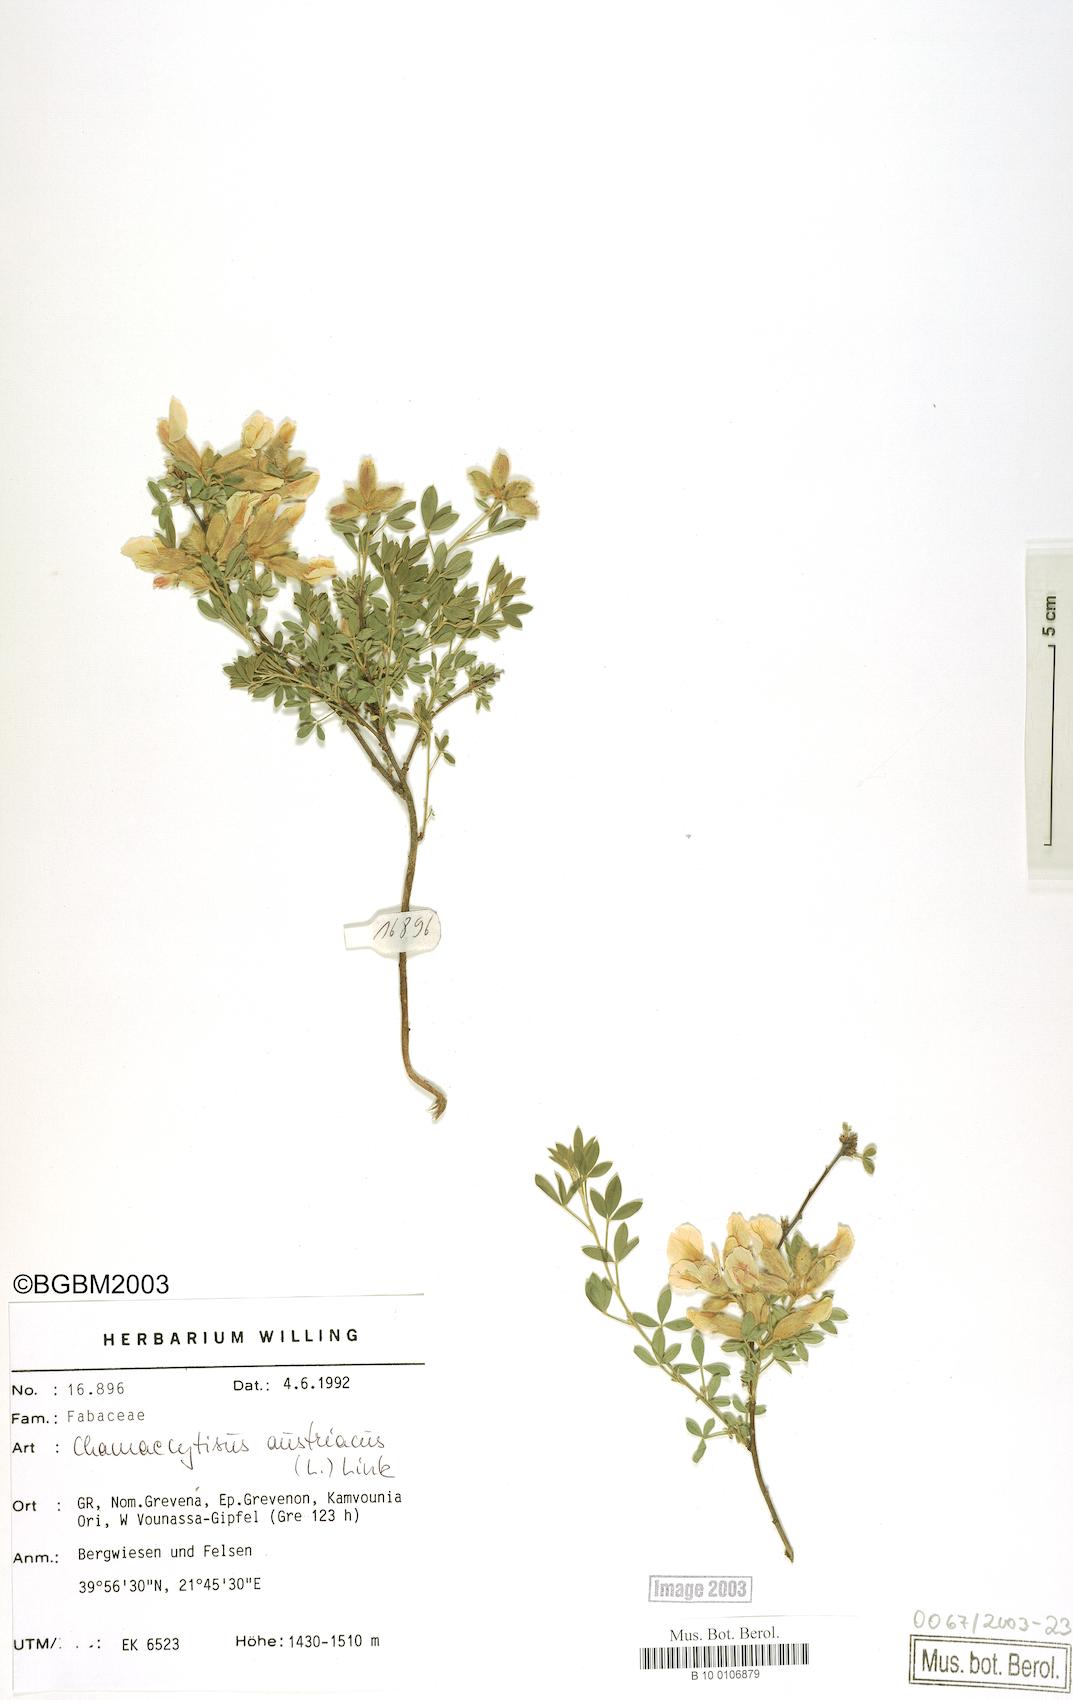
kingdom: Plantae
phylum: Tracheophyta
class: Magnoliopsida
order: Fabales
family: Fabaceae
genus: Chamaecytisus
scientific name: Chamaecytisus austriacus
